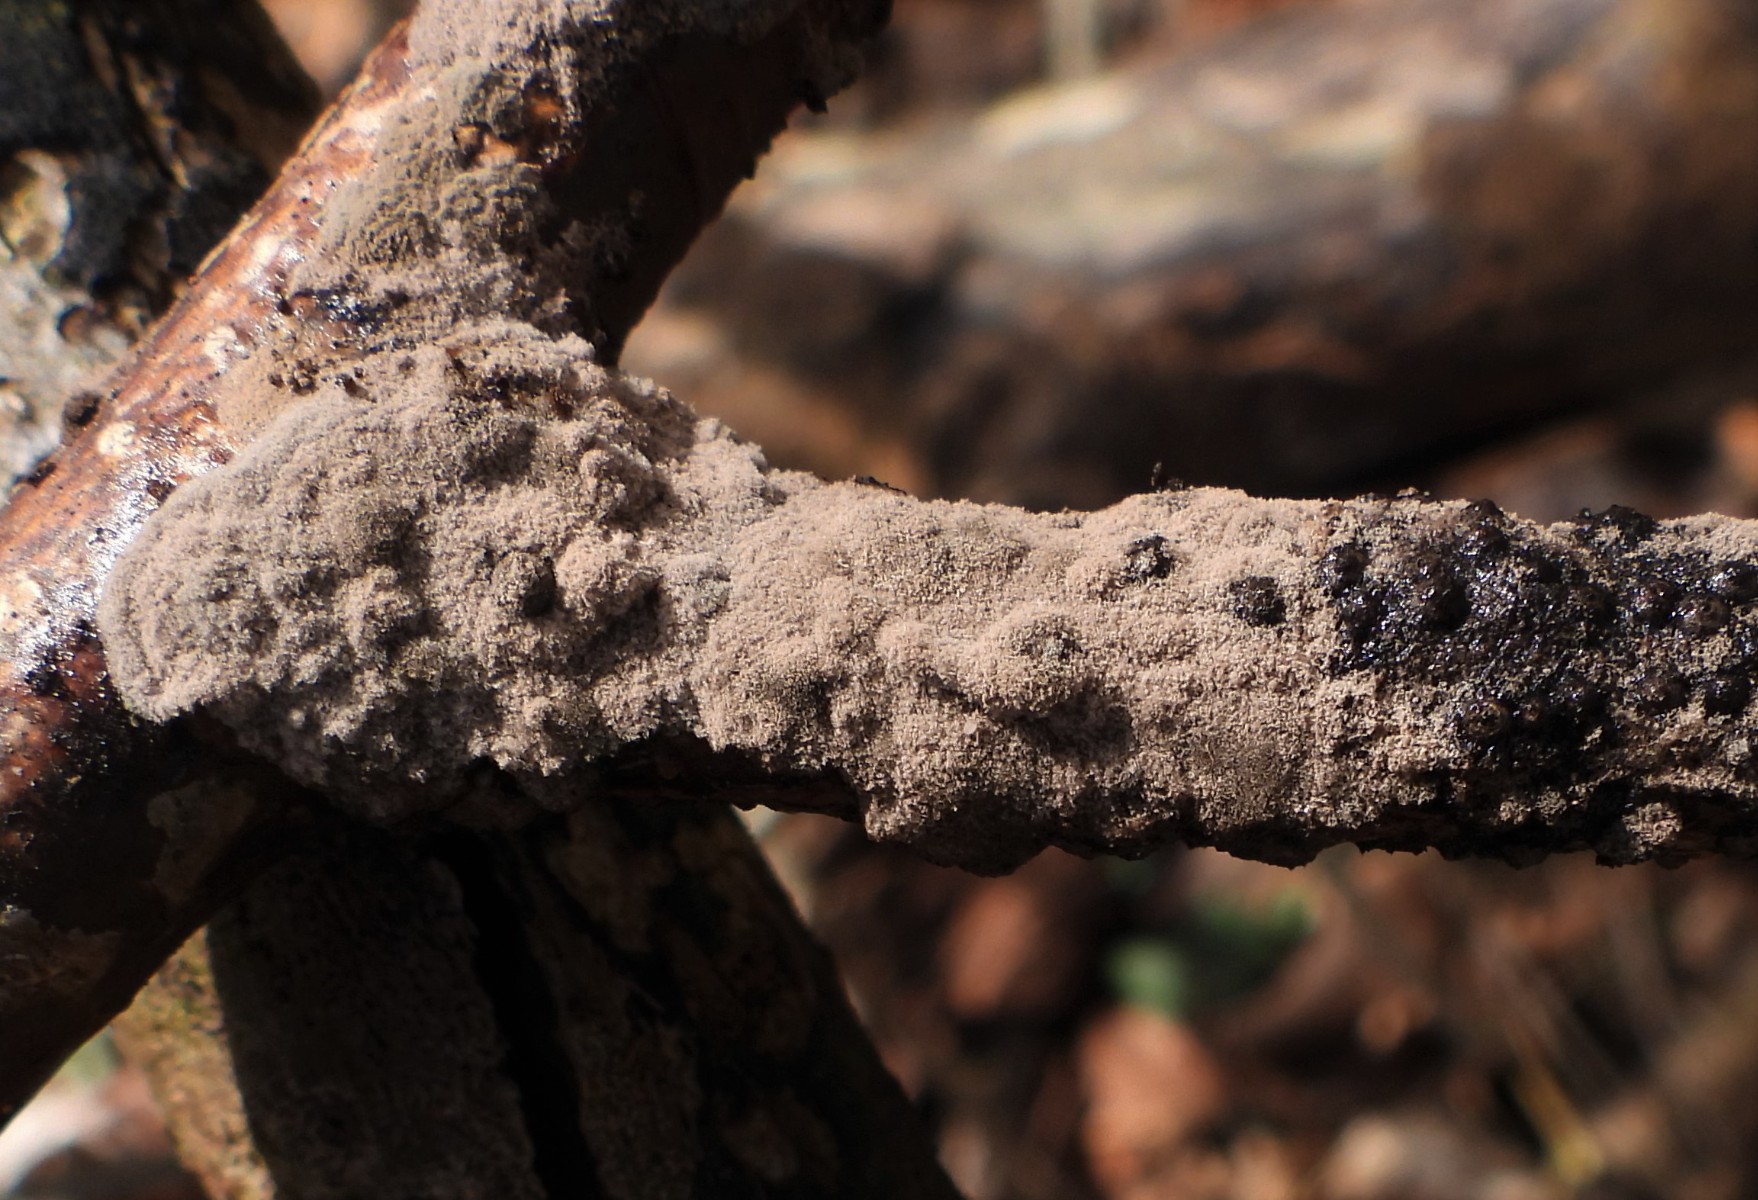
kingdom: Fungi
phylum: Ascomycota
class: Sordariomycetes
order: Xylariales
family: Xylariaceae
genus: Rosellinia
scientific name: Rosellinia
